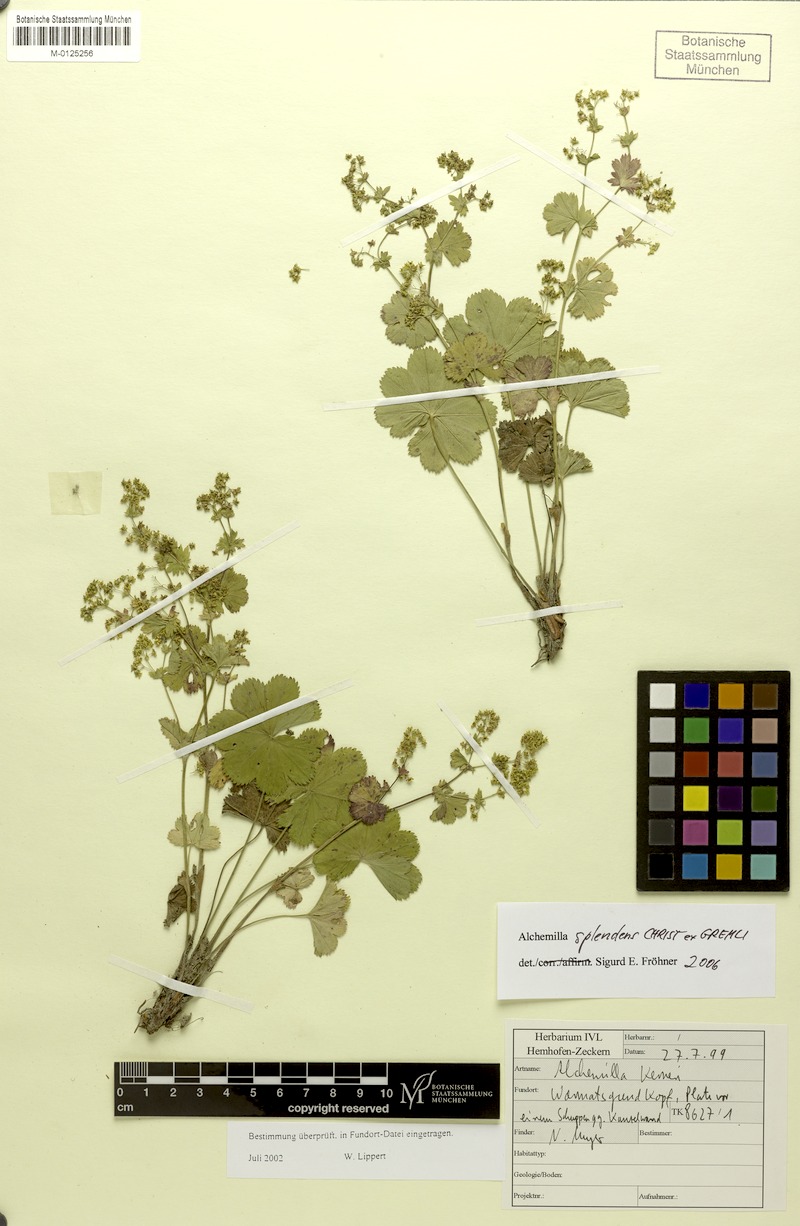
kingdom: Plantae
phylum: Tracheophyta
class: Magnoliopsida
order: Rosales
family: Rosaceae
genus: Alchemilla
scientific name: Alchemilla splendens
